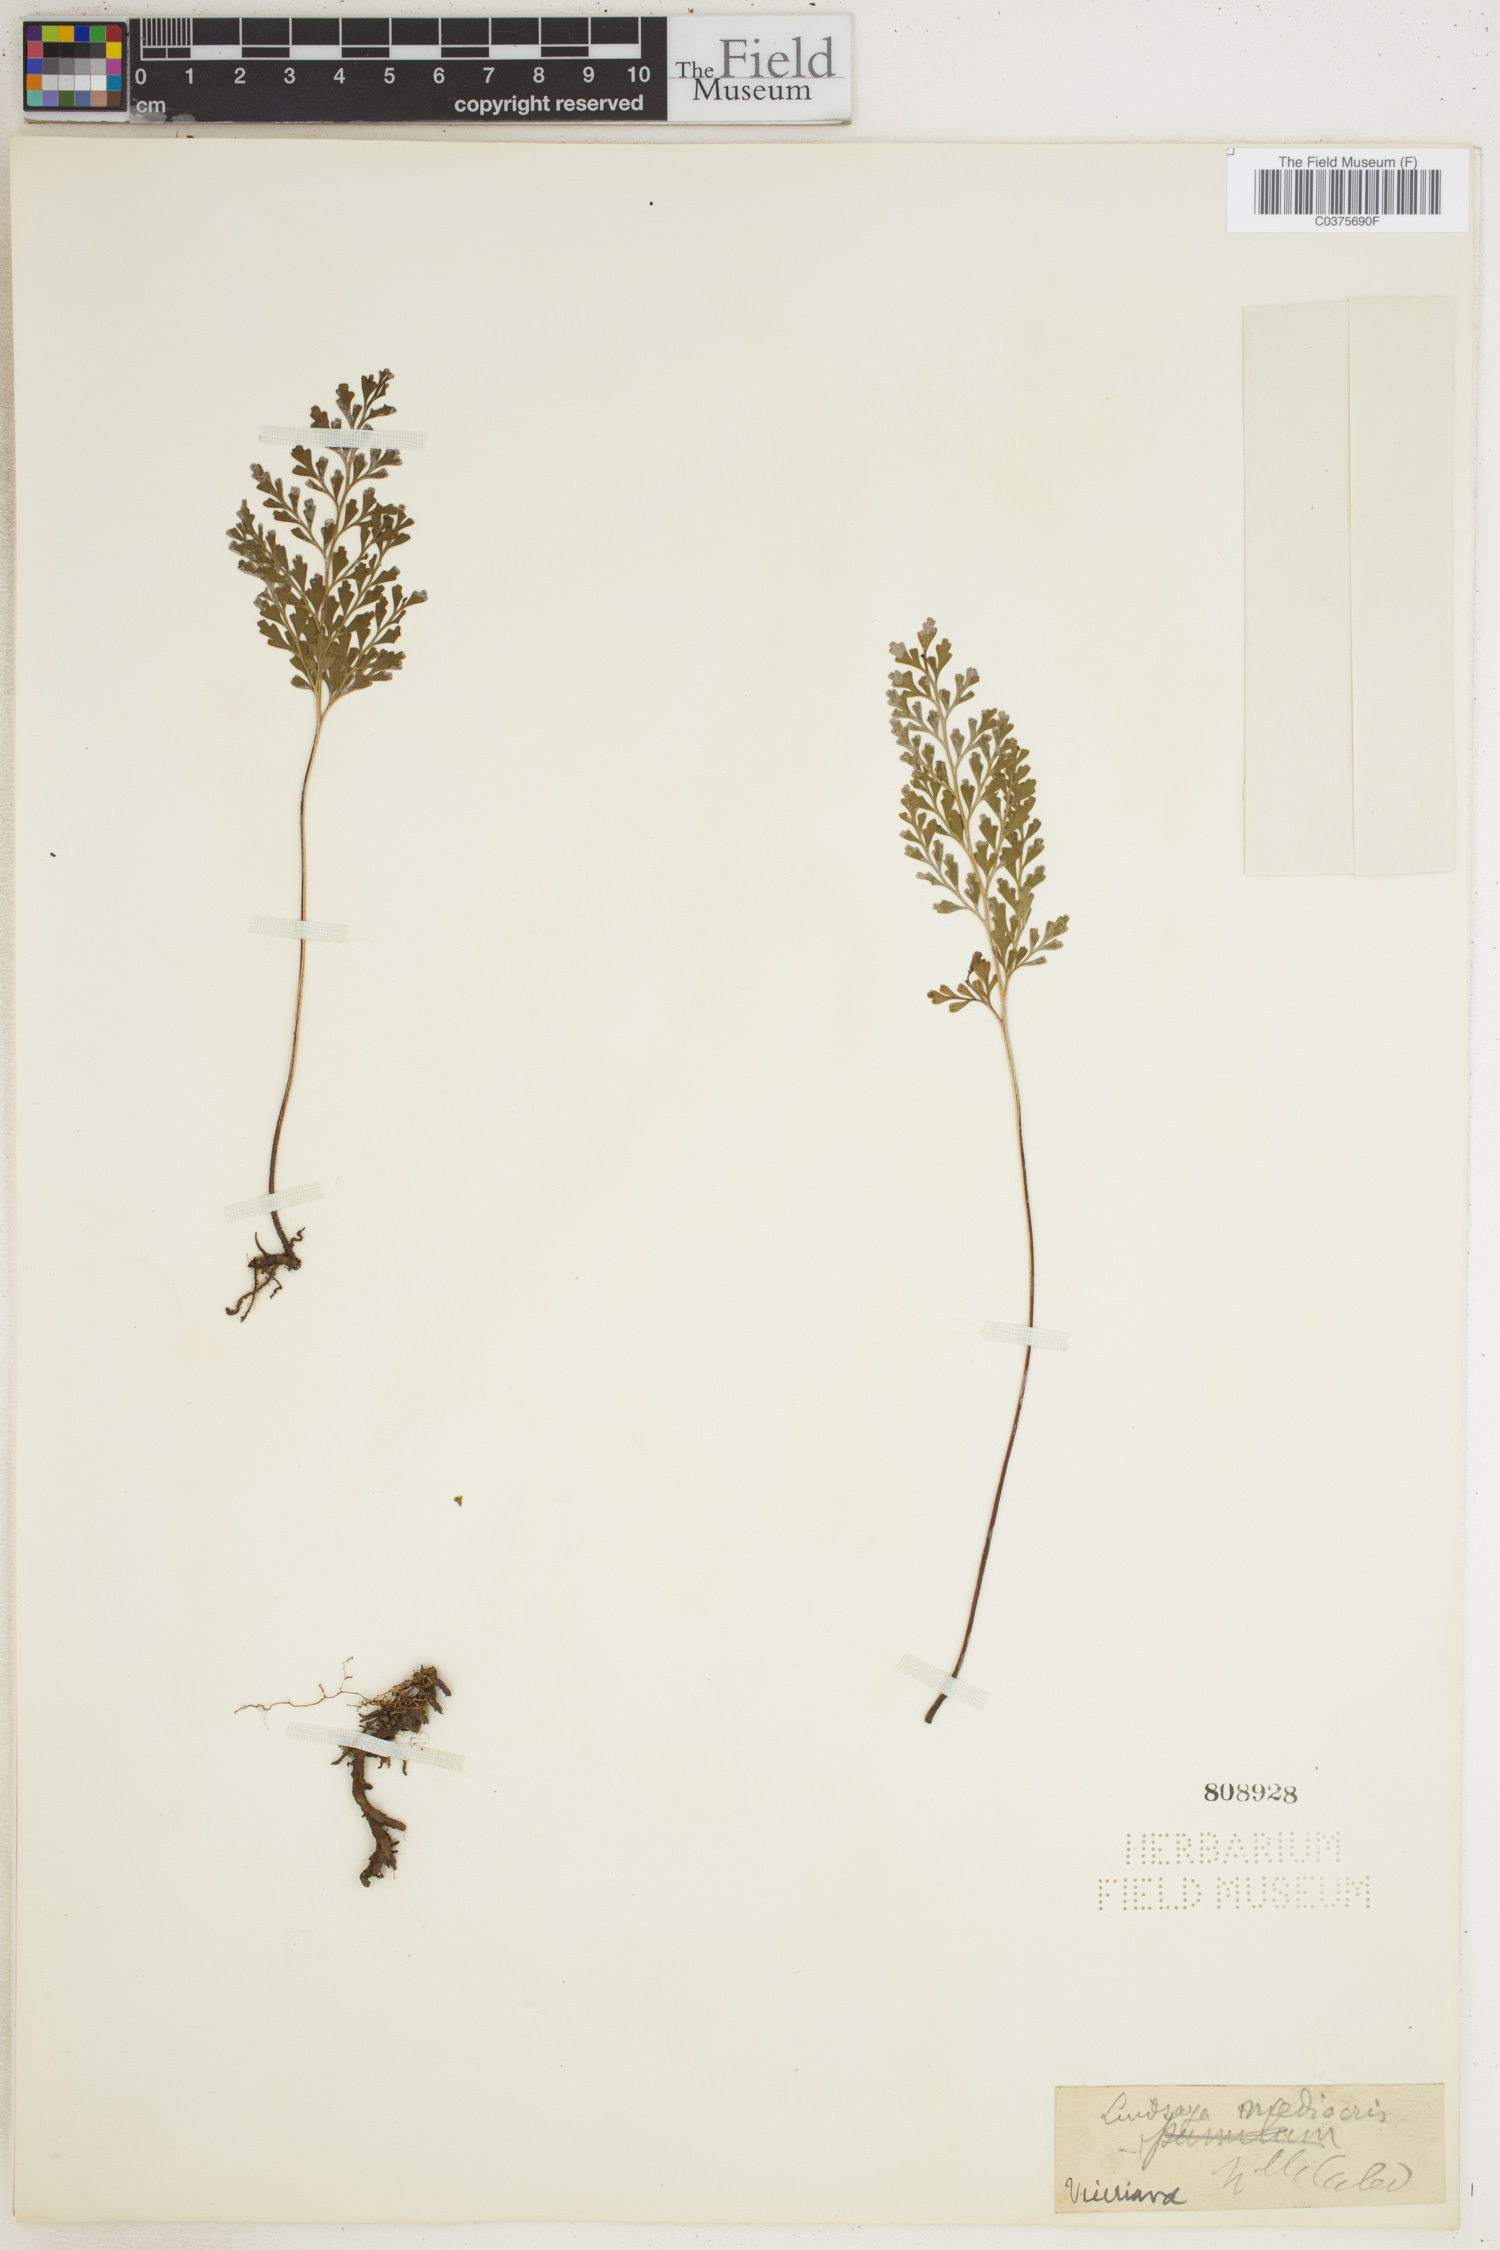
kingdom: Plantae
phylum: Tracheophyta
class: Polypodiopsida
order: Polypodiales
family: Lindsaeaceae
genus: Lindsaea
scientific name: Lindsaea
